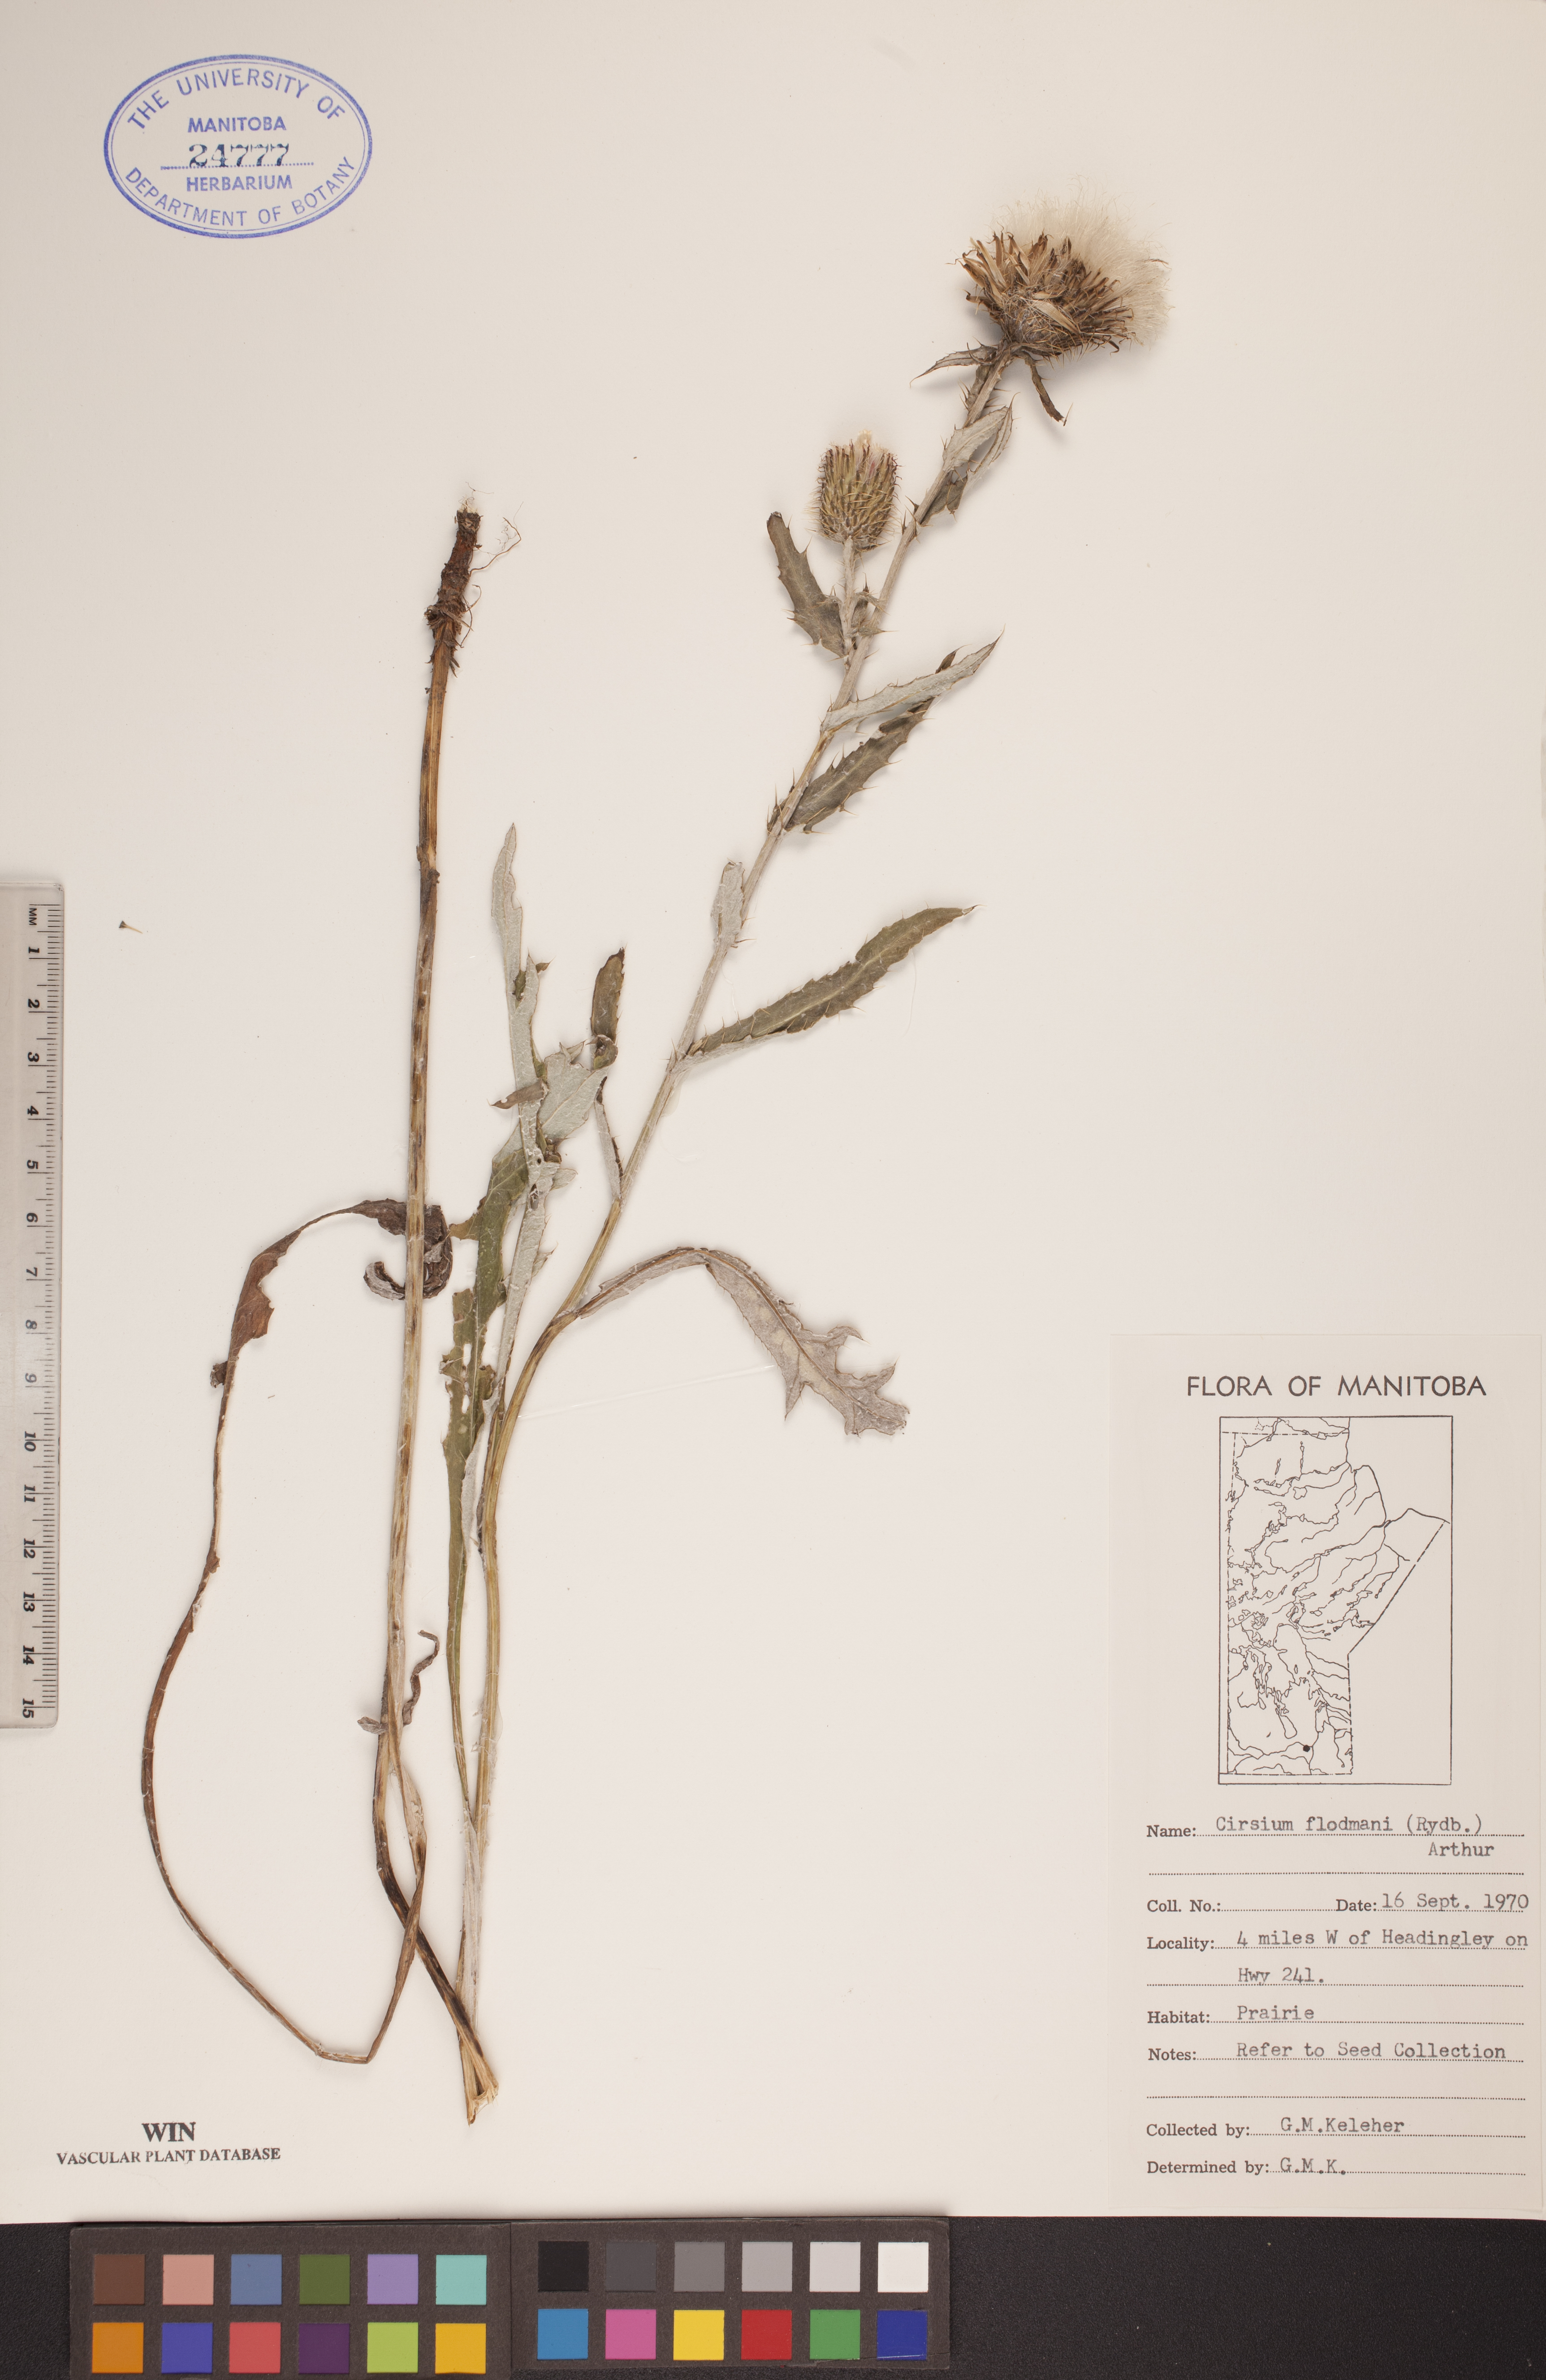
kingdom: Plantae
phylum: Tracheophyta
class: Magnoliopsida
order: Asterales
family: Asteraceae
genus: Cirsium
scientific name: Cirsium flodmanii
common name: Flodman's thistle
